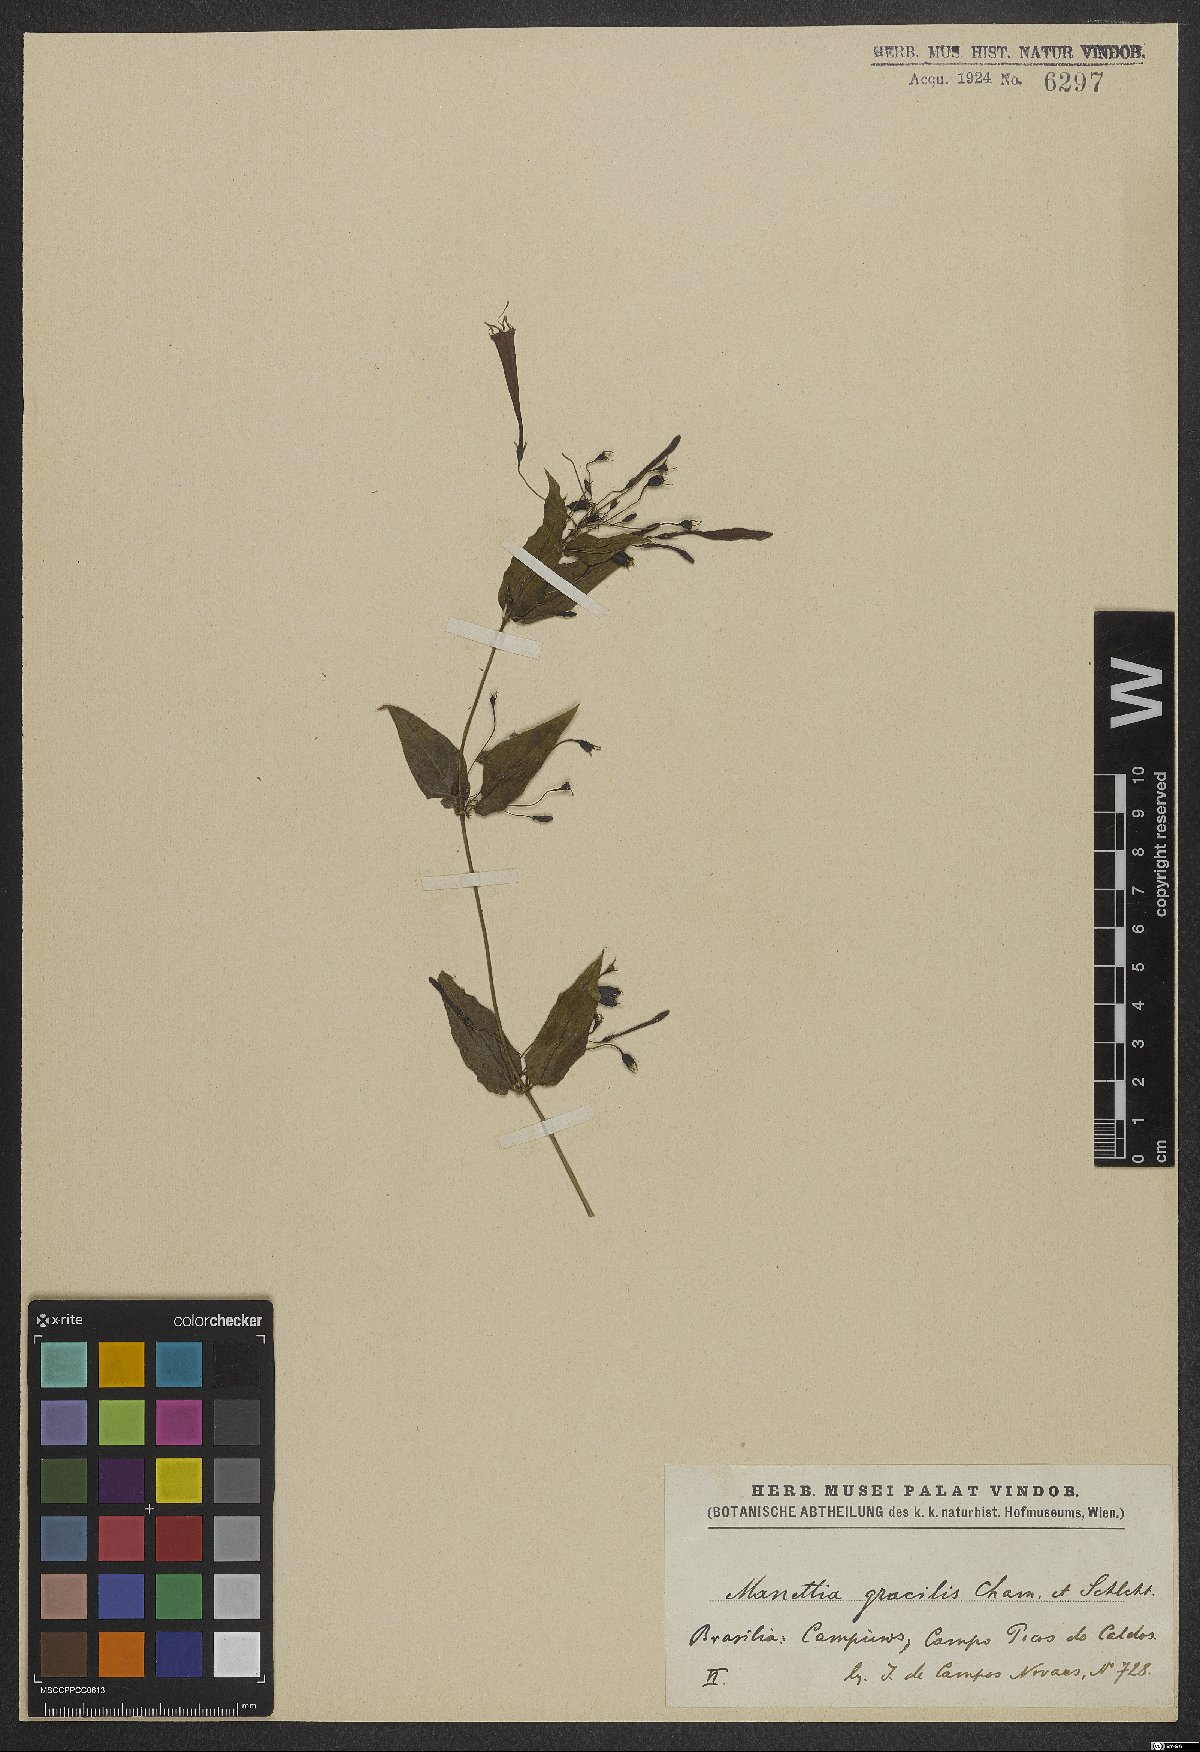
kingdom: Plantae
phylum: Tracheophyta
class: Magnoliopsida
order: Gentianales
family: Rubiaceae
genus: Manettia
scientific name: Manettia gracilis
